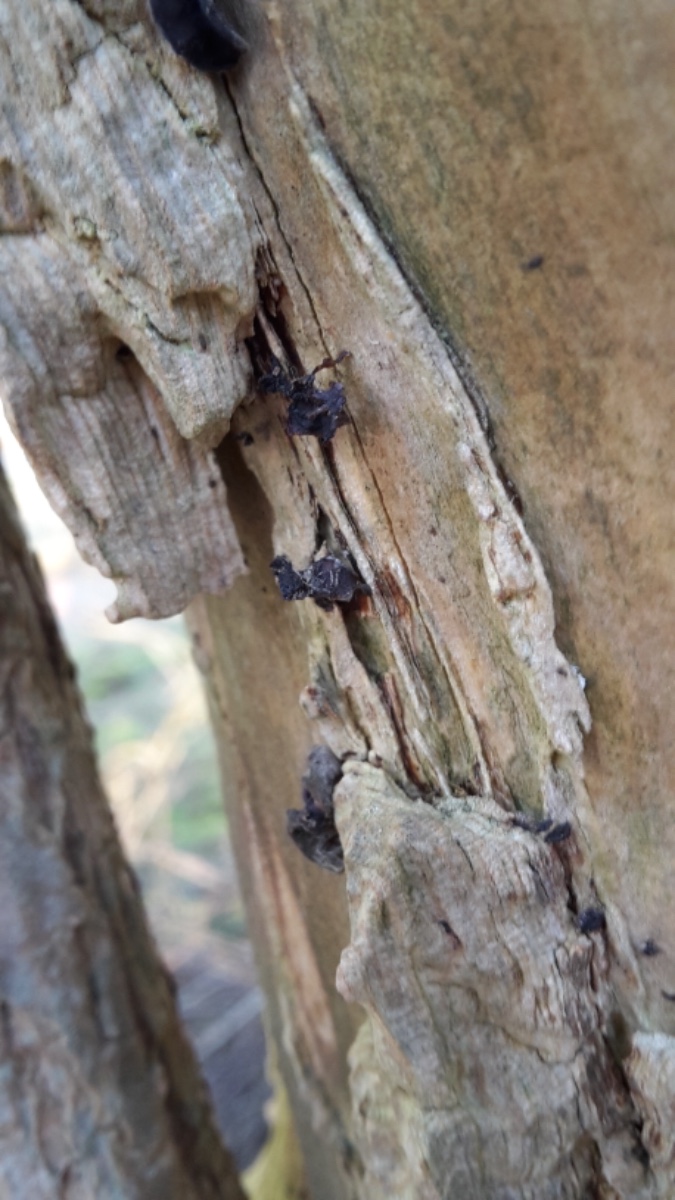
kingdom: Fungi
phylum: Basidiomycota
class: Agaricomycetes
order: Auriculariales
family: Auriculariaceae
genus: Auricularia
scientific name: Auricularia auricula-judae
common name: almindelig judasøre
